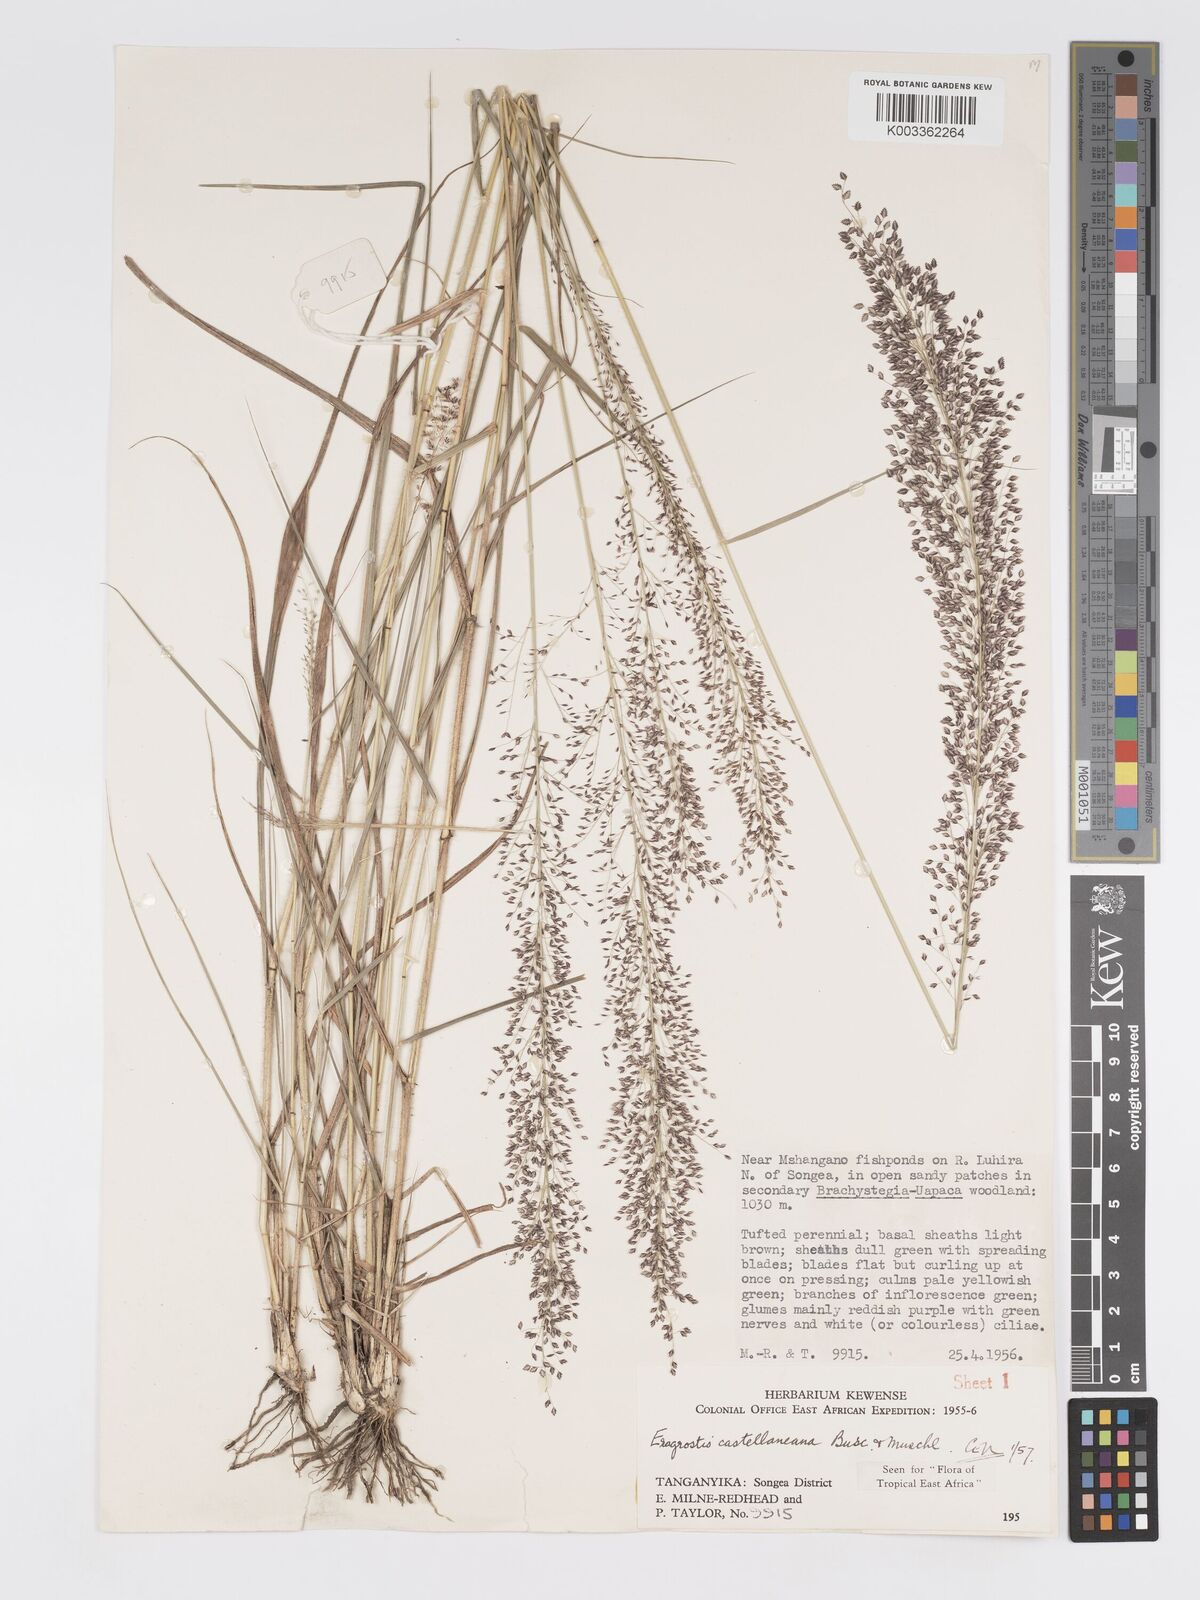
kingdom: Plantae
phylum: Tracheophyta
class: Liliopsida
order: Poales
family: Poaceae
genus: Eragrostis
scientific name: Eragrostis castellaneana
